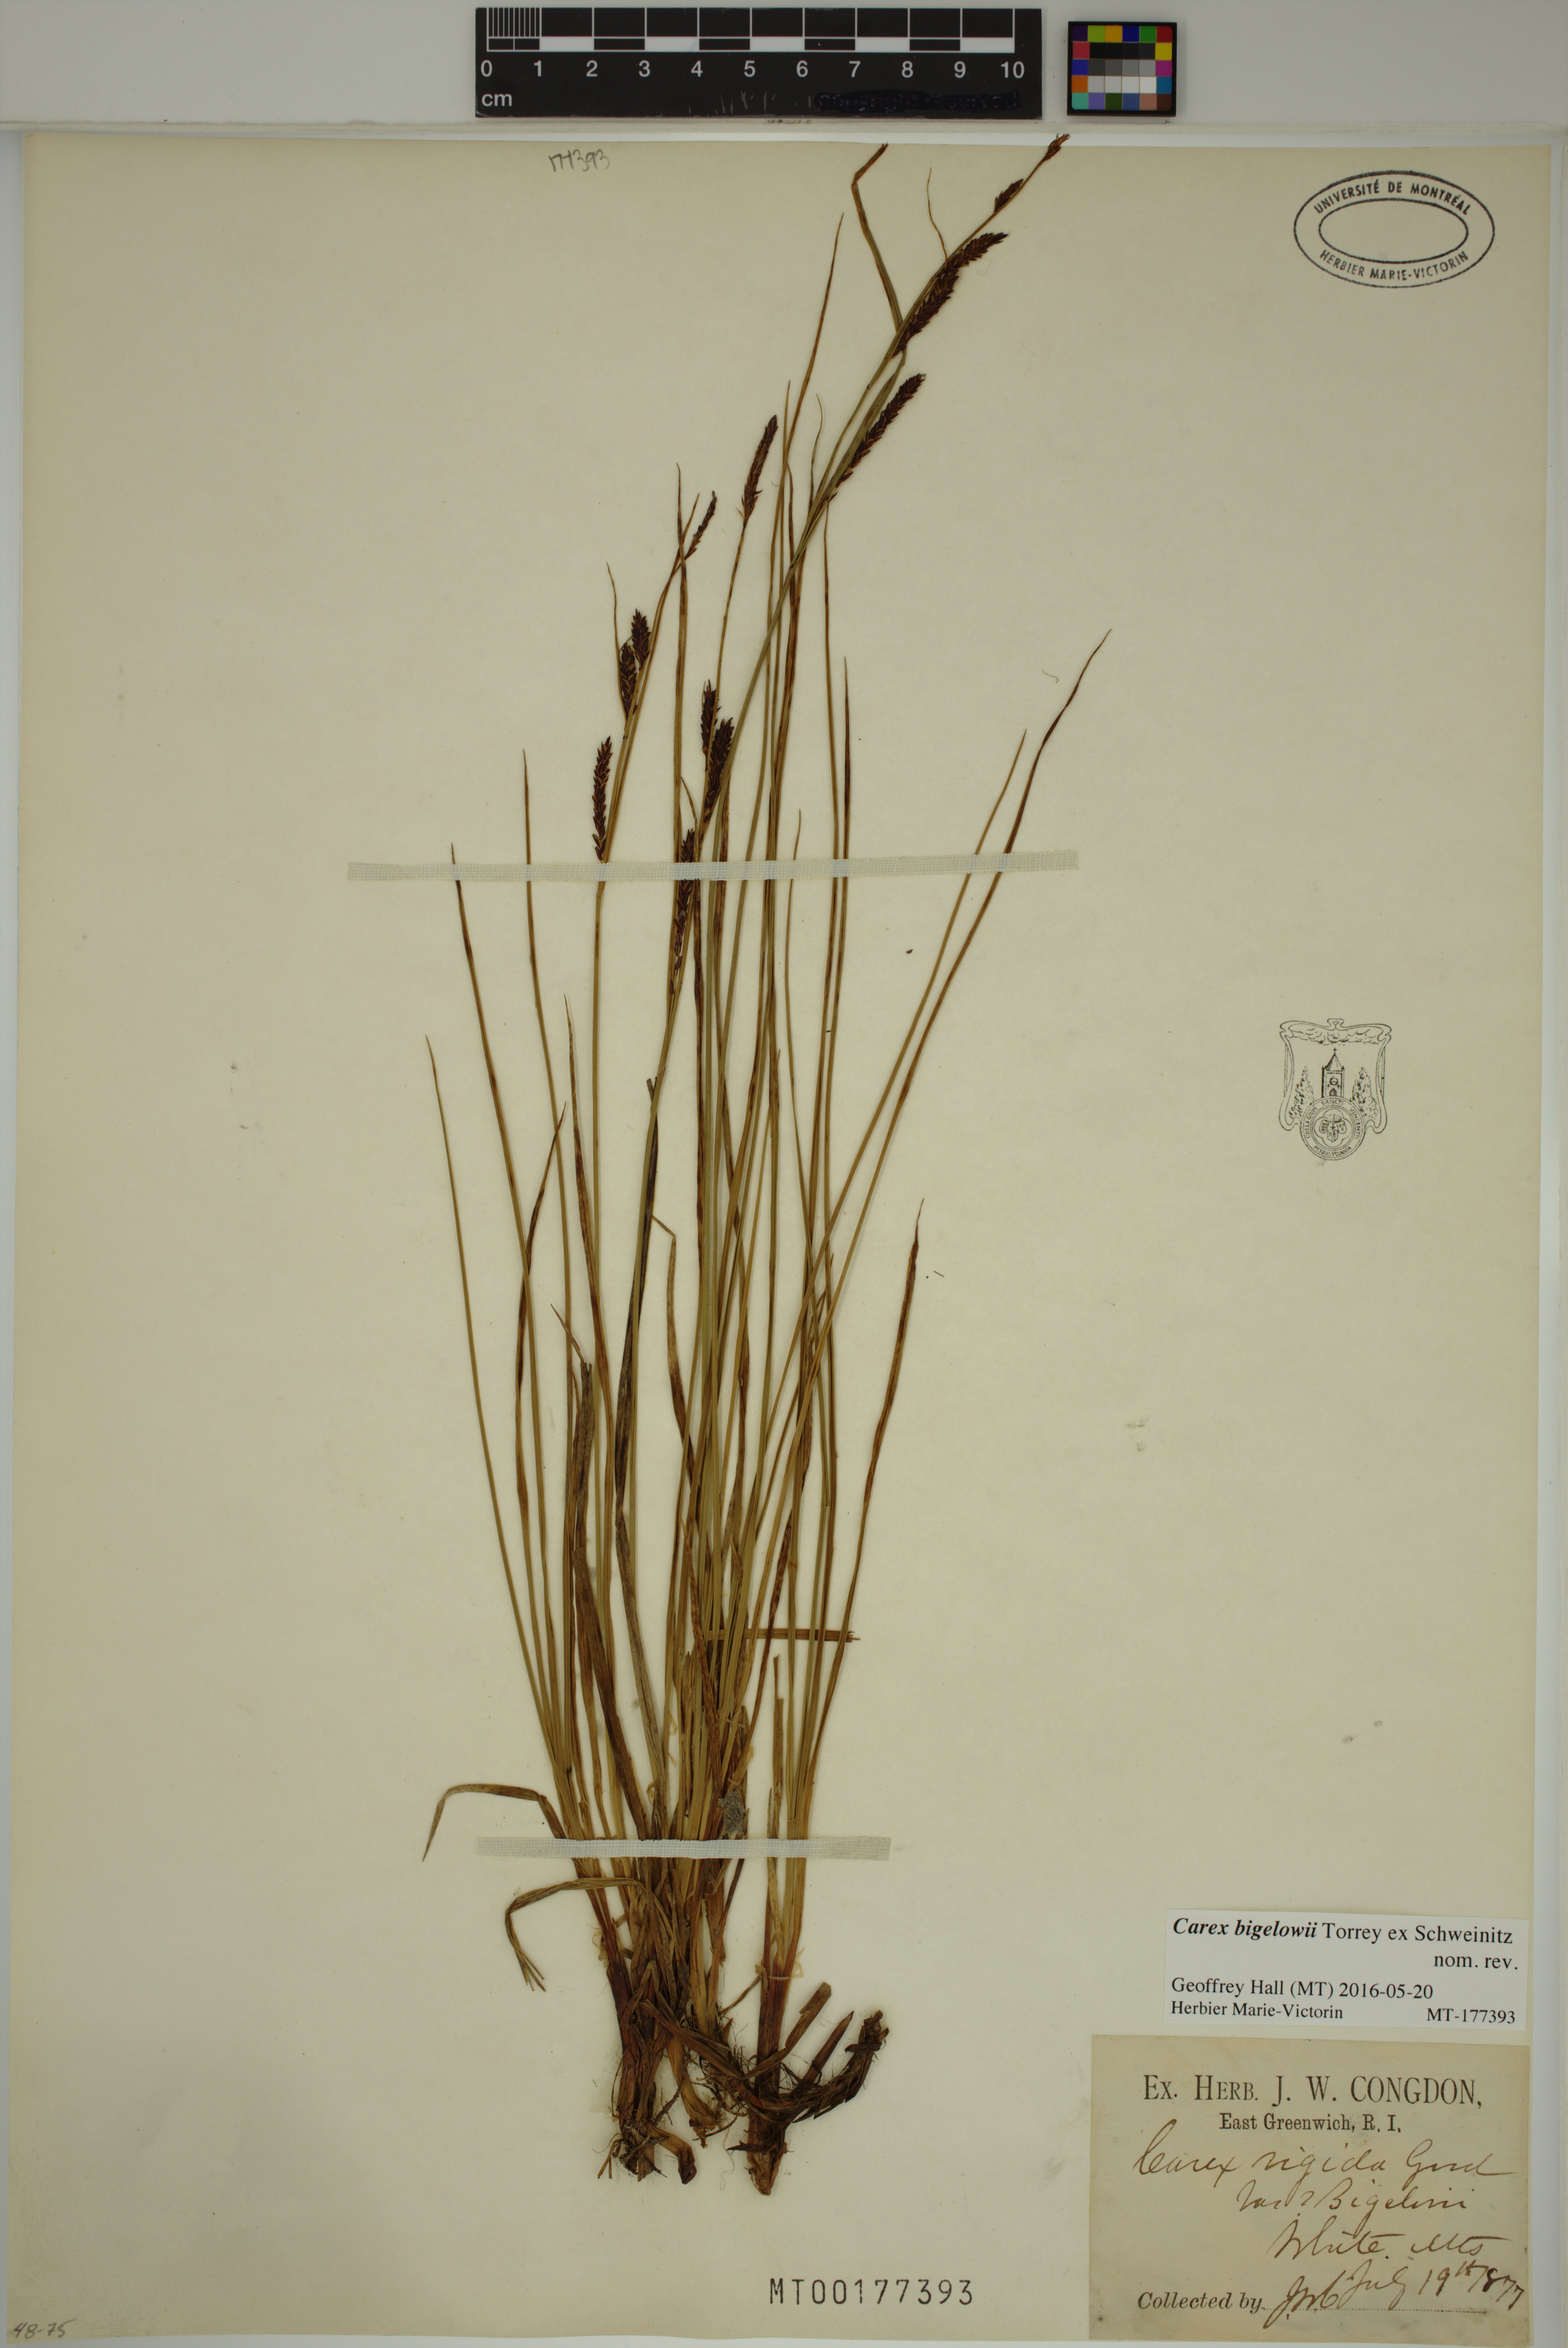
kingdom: Plantae
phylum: Tracheophyta
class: Liliopsida
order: Poales
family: Cyperaceae
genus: Carex
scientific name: Carex bigelowii
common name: Stiff sedge
